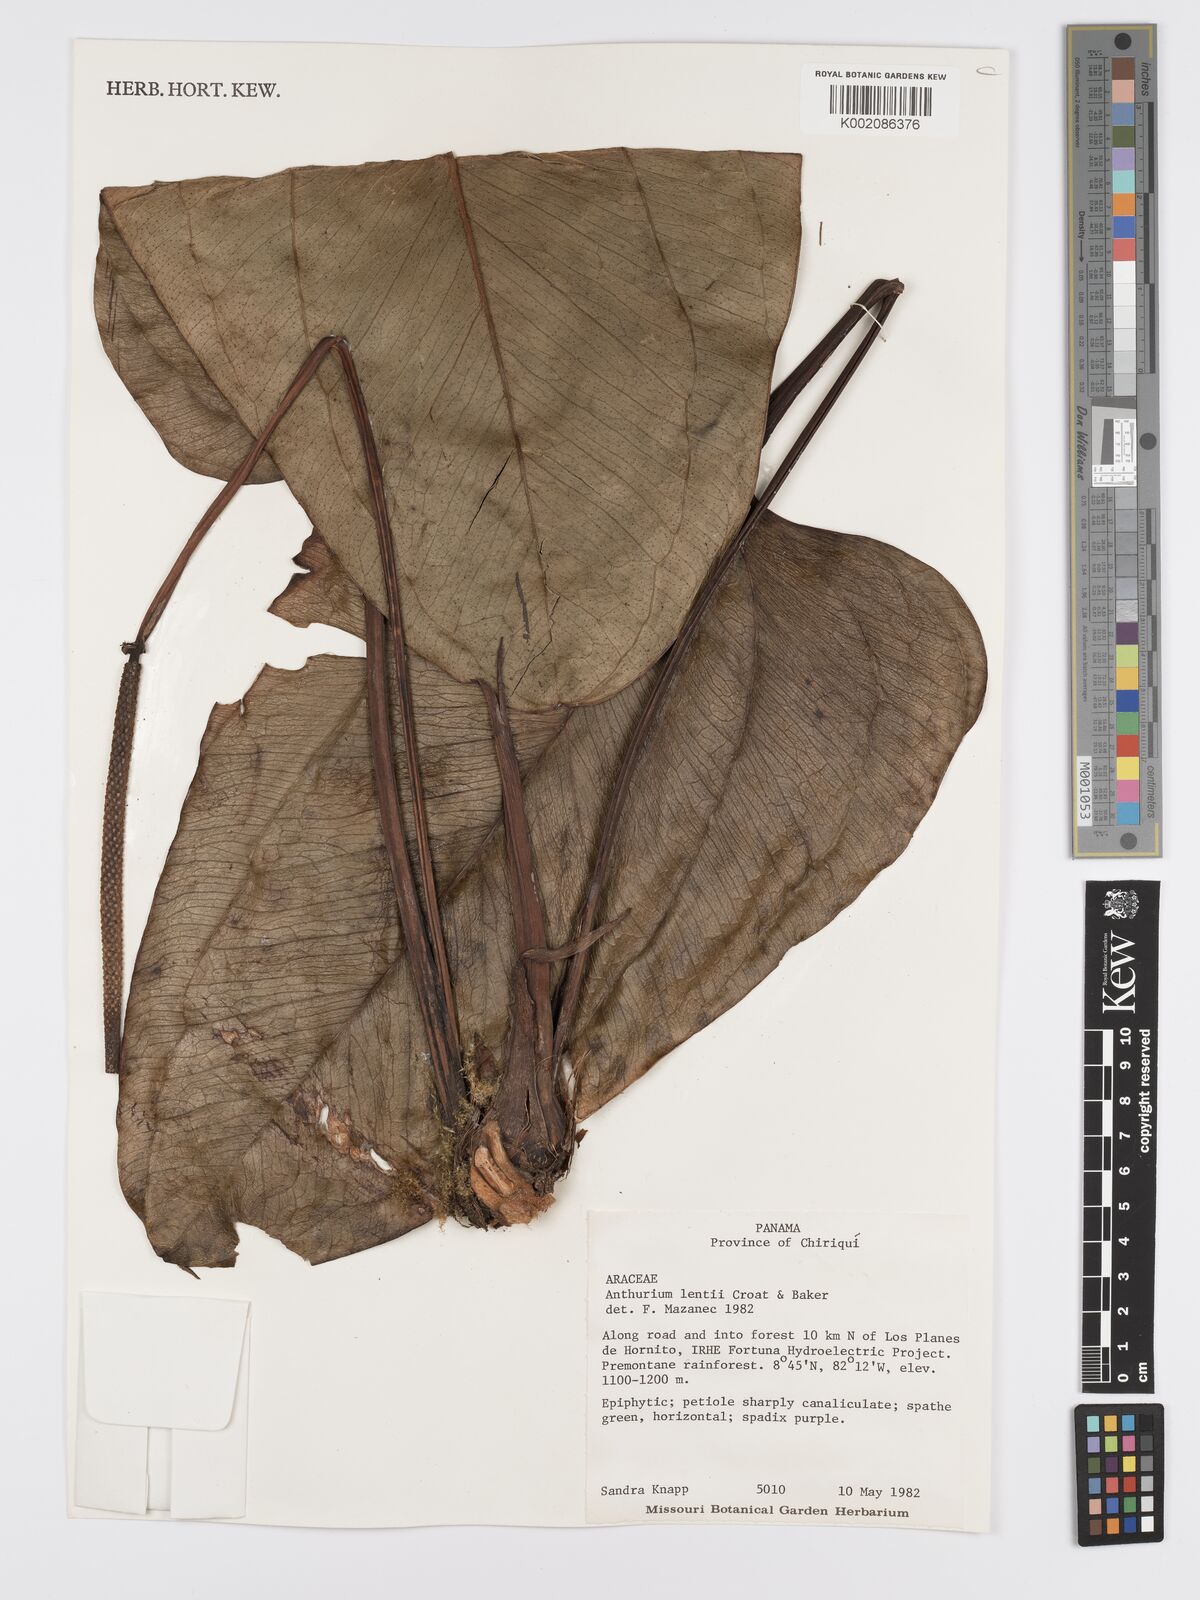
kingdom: Plantae
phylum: Tracheophyta
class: Liliopsida
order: Alismatales
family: Araceae
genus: Anthurium
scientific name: Anthurium lentii
